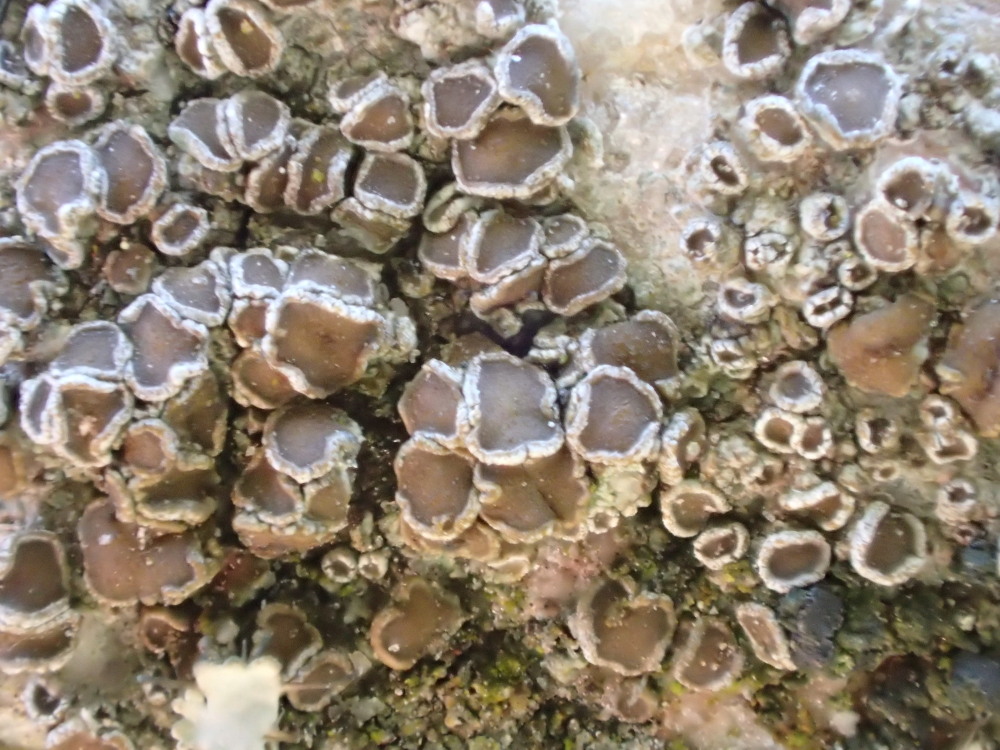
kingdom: Fungi
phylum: Ascomycota
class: Lecanoromycetes
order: Lecanorales
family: Lecanoraceae
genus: Polyozosia
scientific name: Polyozosia dispersa
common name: spredt kantskivelav
